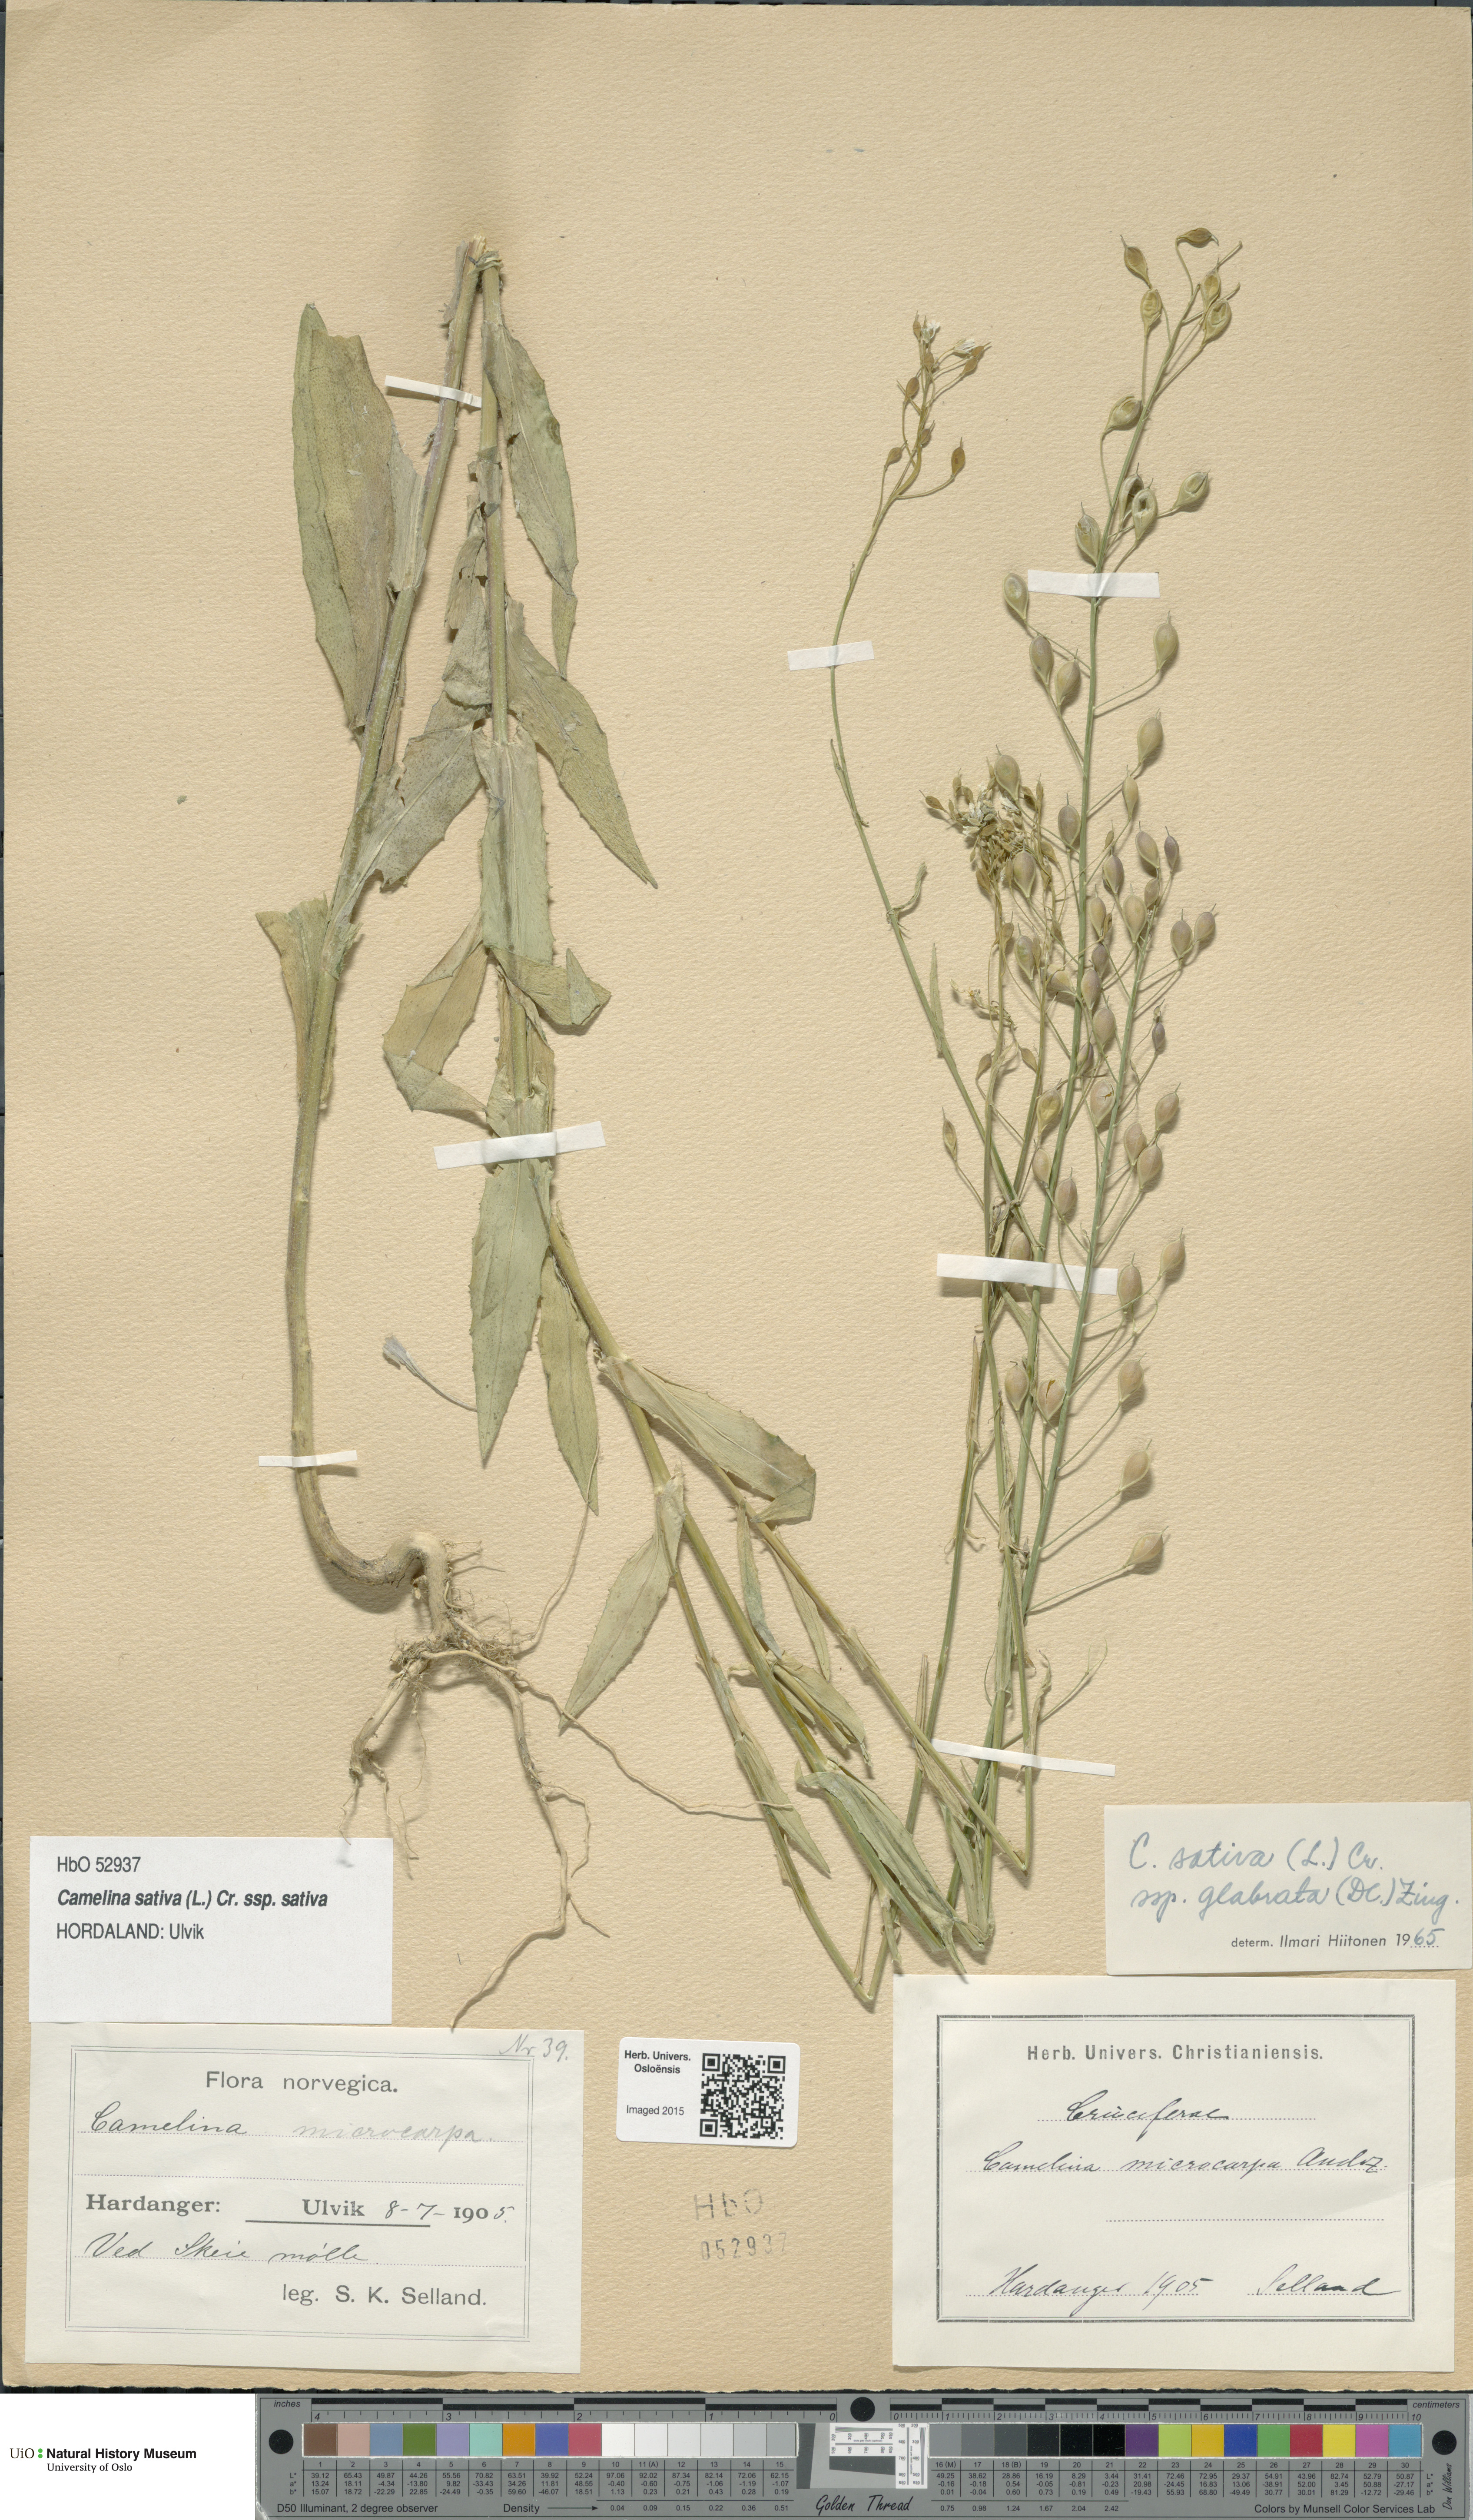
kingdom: Plantae
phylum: Tracheophyta
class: Magnoliopsida
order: Brassicales
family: Brassicaceae
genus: Camelina
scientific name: Camelina sativa
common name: Gold-of-pleasure
